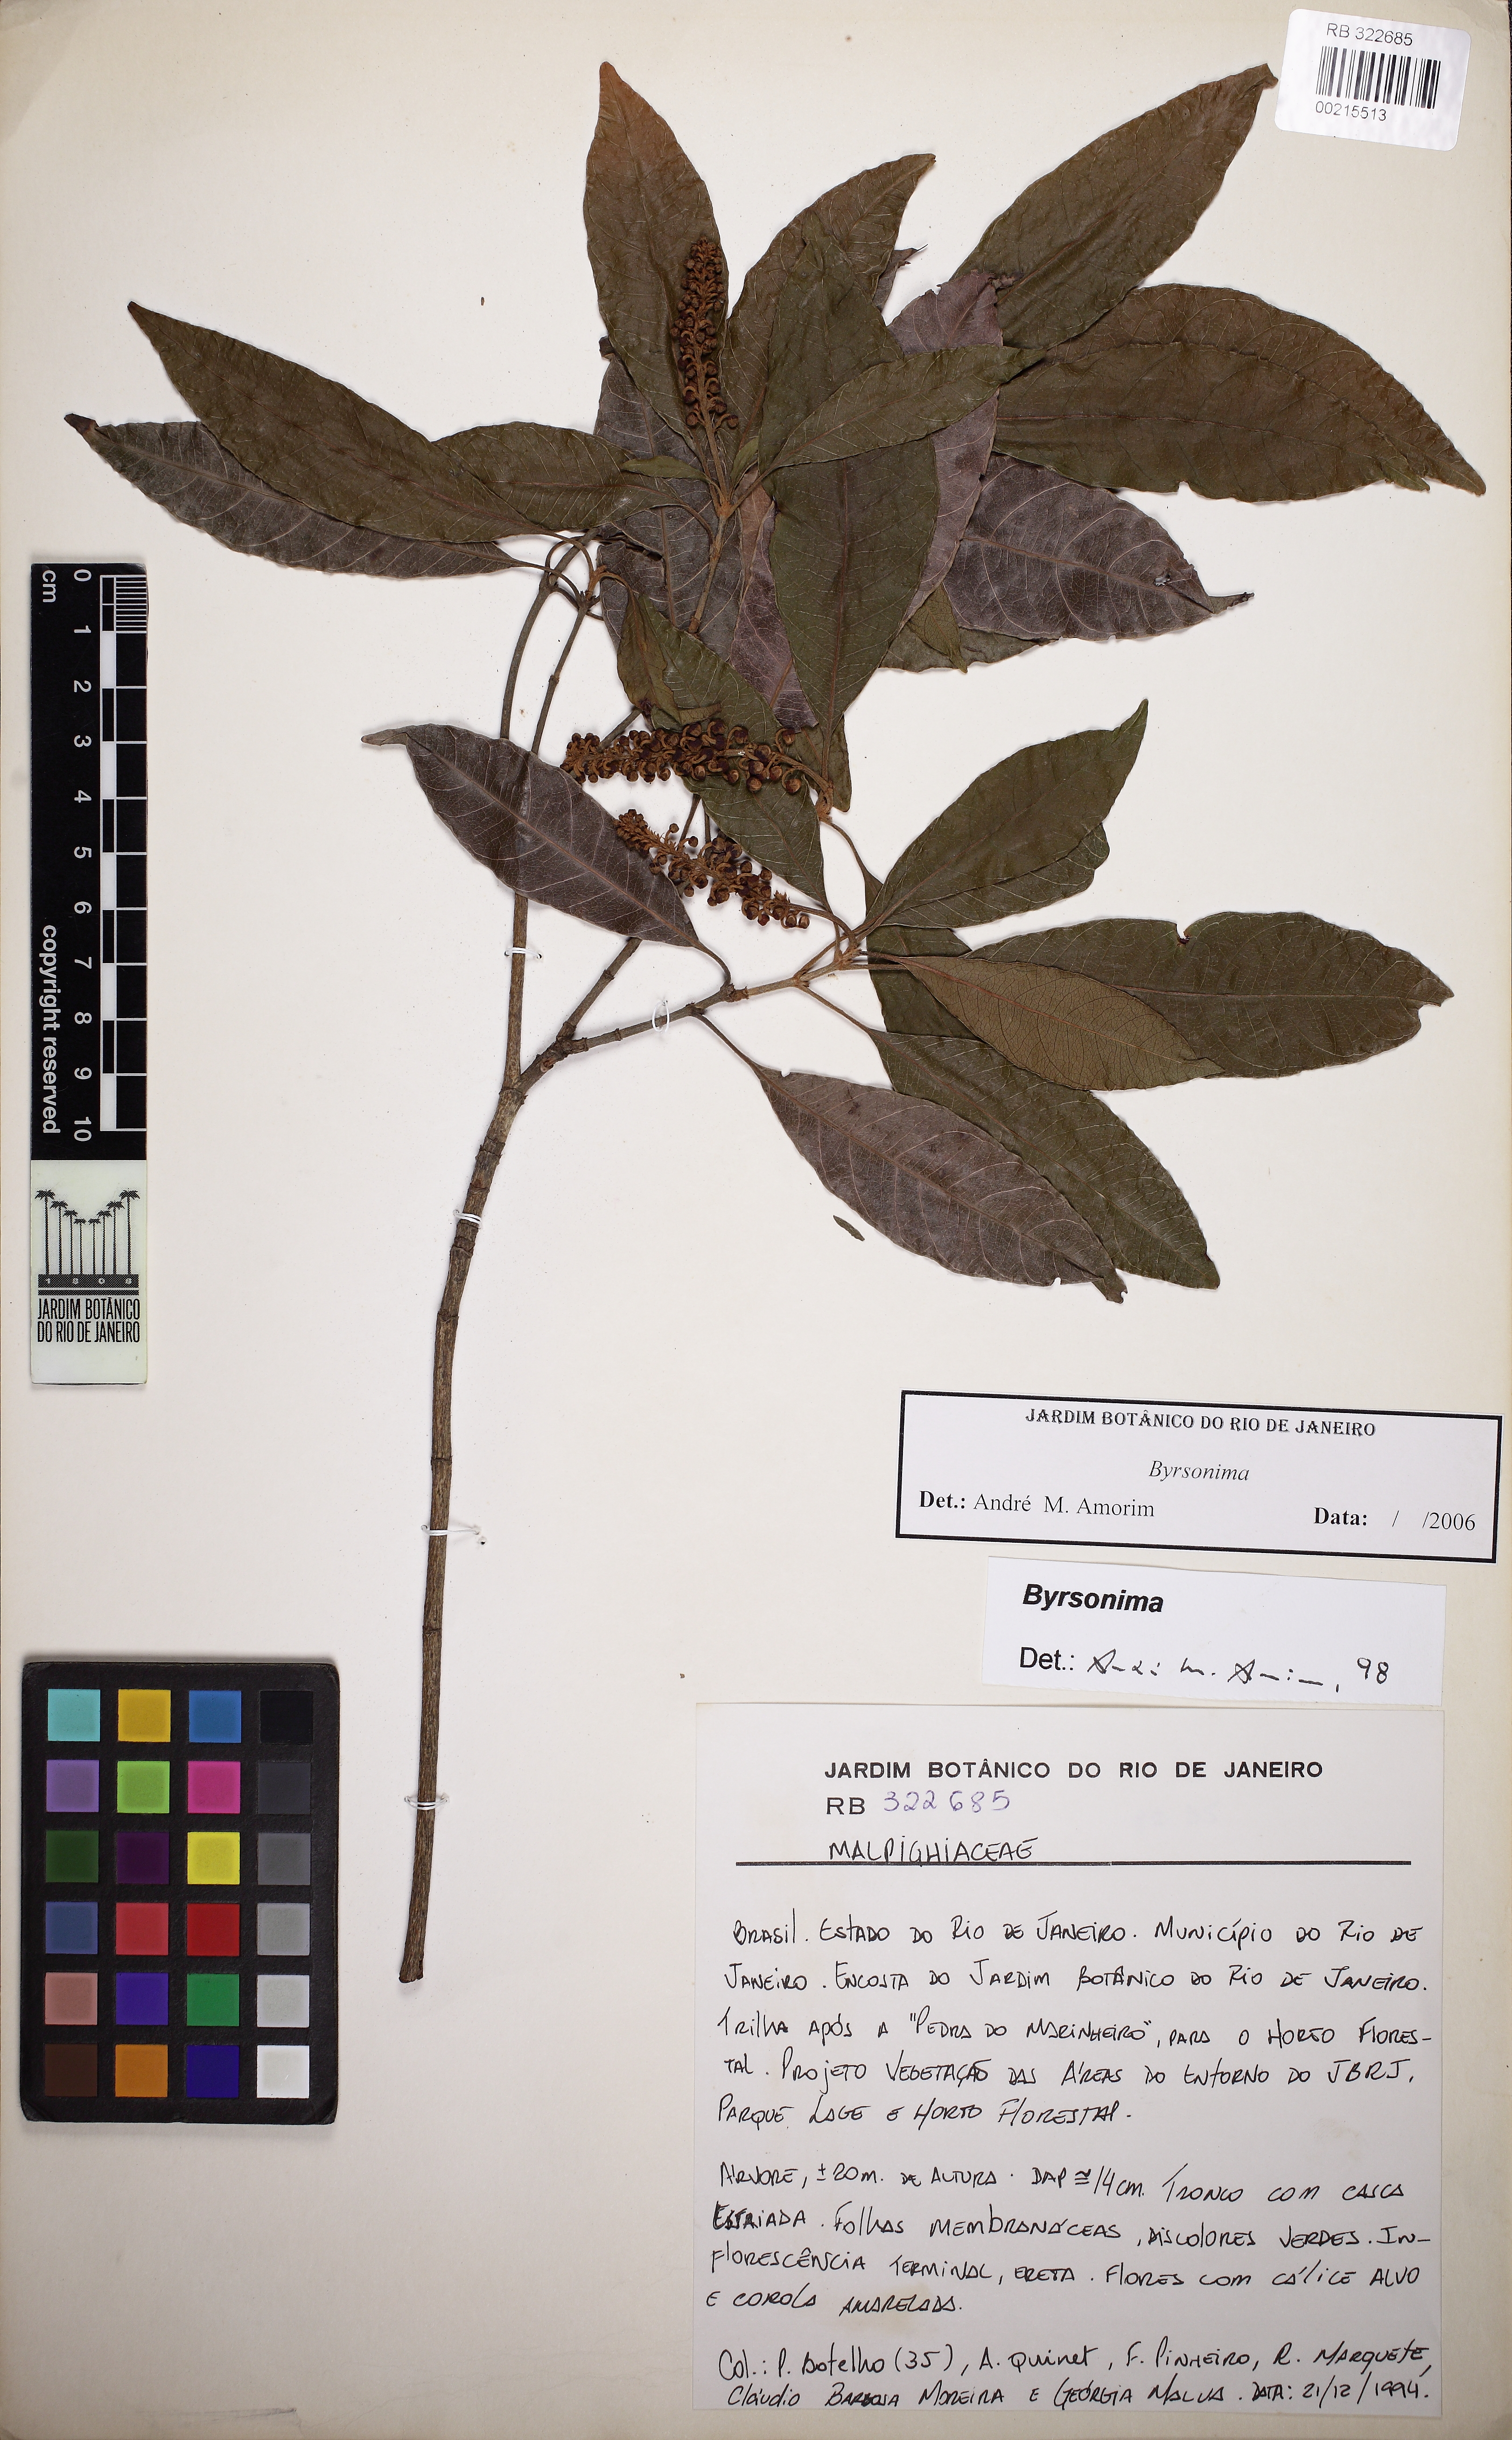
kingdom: Plantae
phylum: Tracheophyta
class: Magnoliopsida
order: Malpighiales
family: Malpighiaceae
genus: Byrsonima
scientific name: Byrsonima
